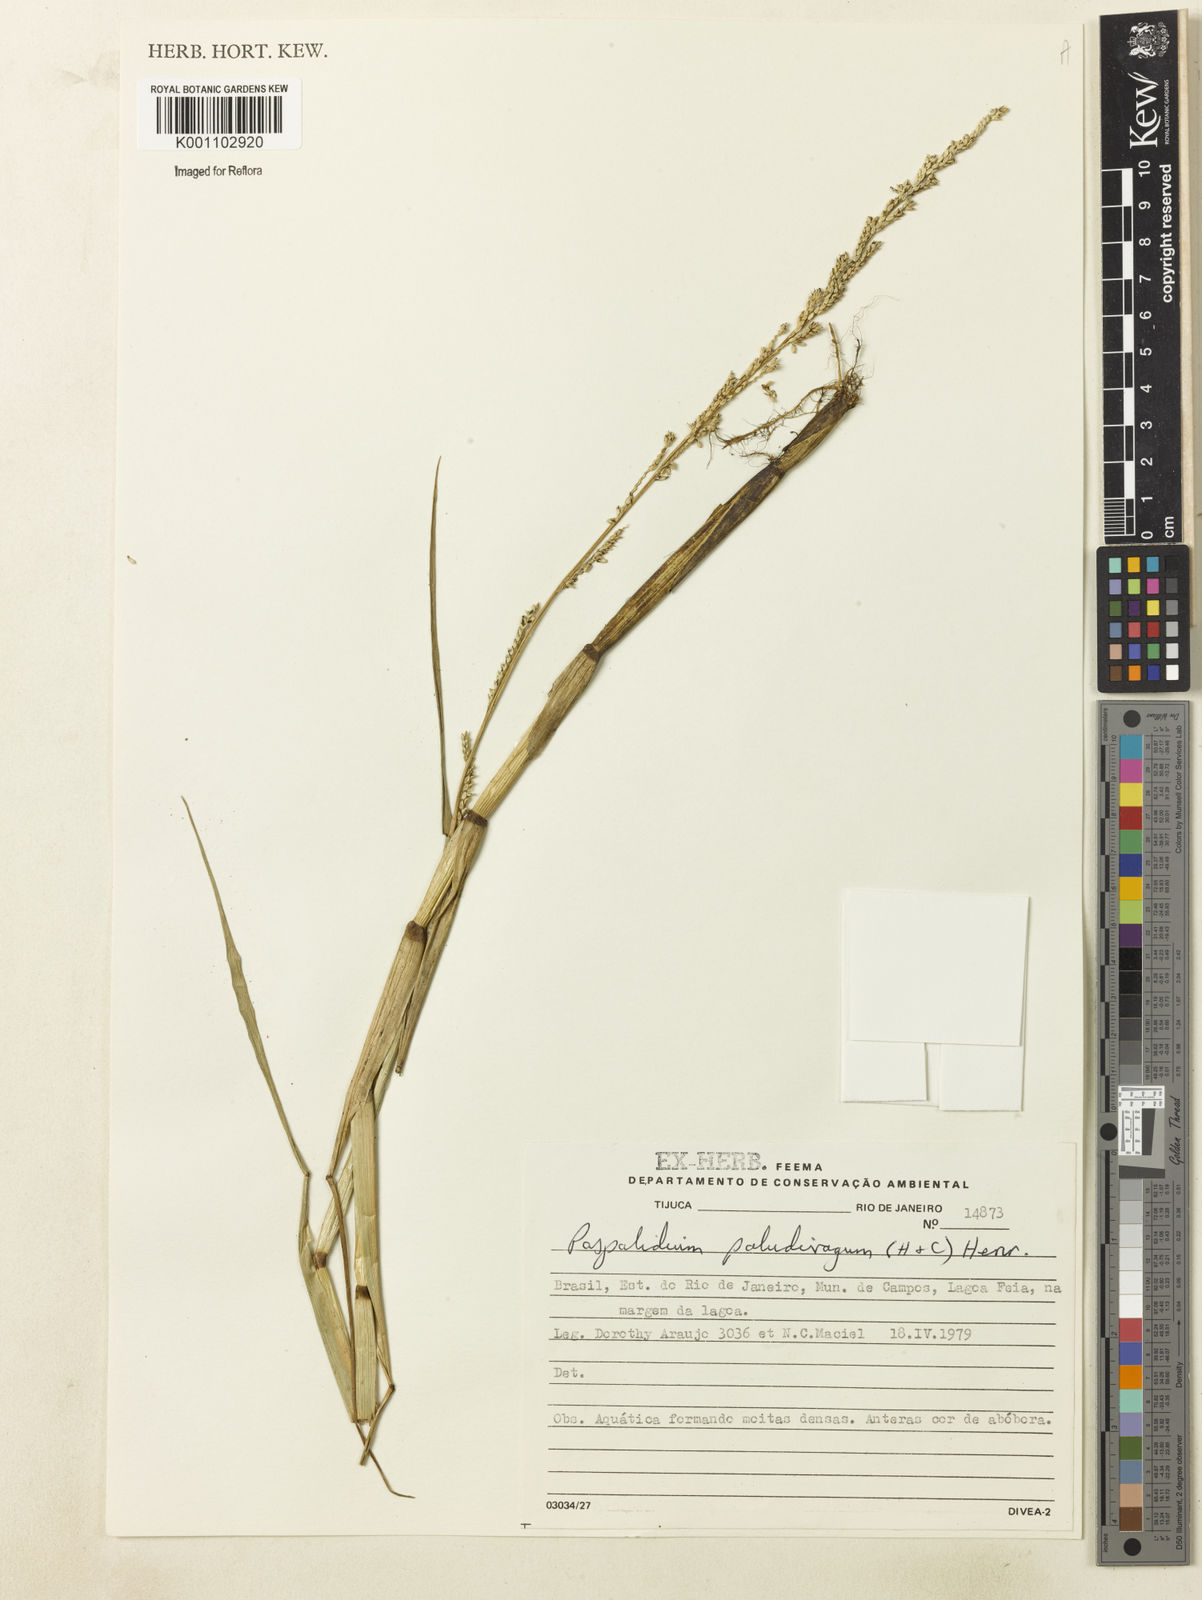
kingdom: Plantae
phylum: Tracheophyta
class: Liliopsida
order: Poales
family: Poaceae
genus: Setaria
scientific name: Setaria geminata
